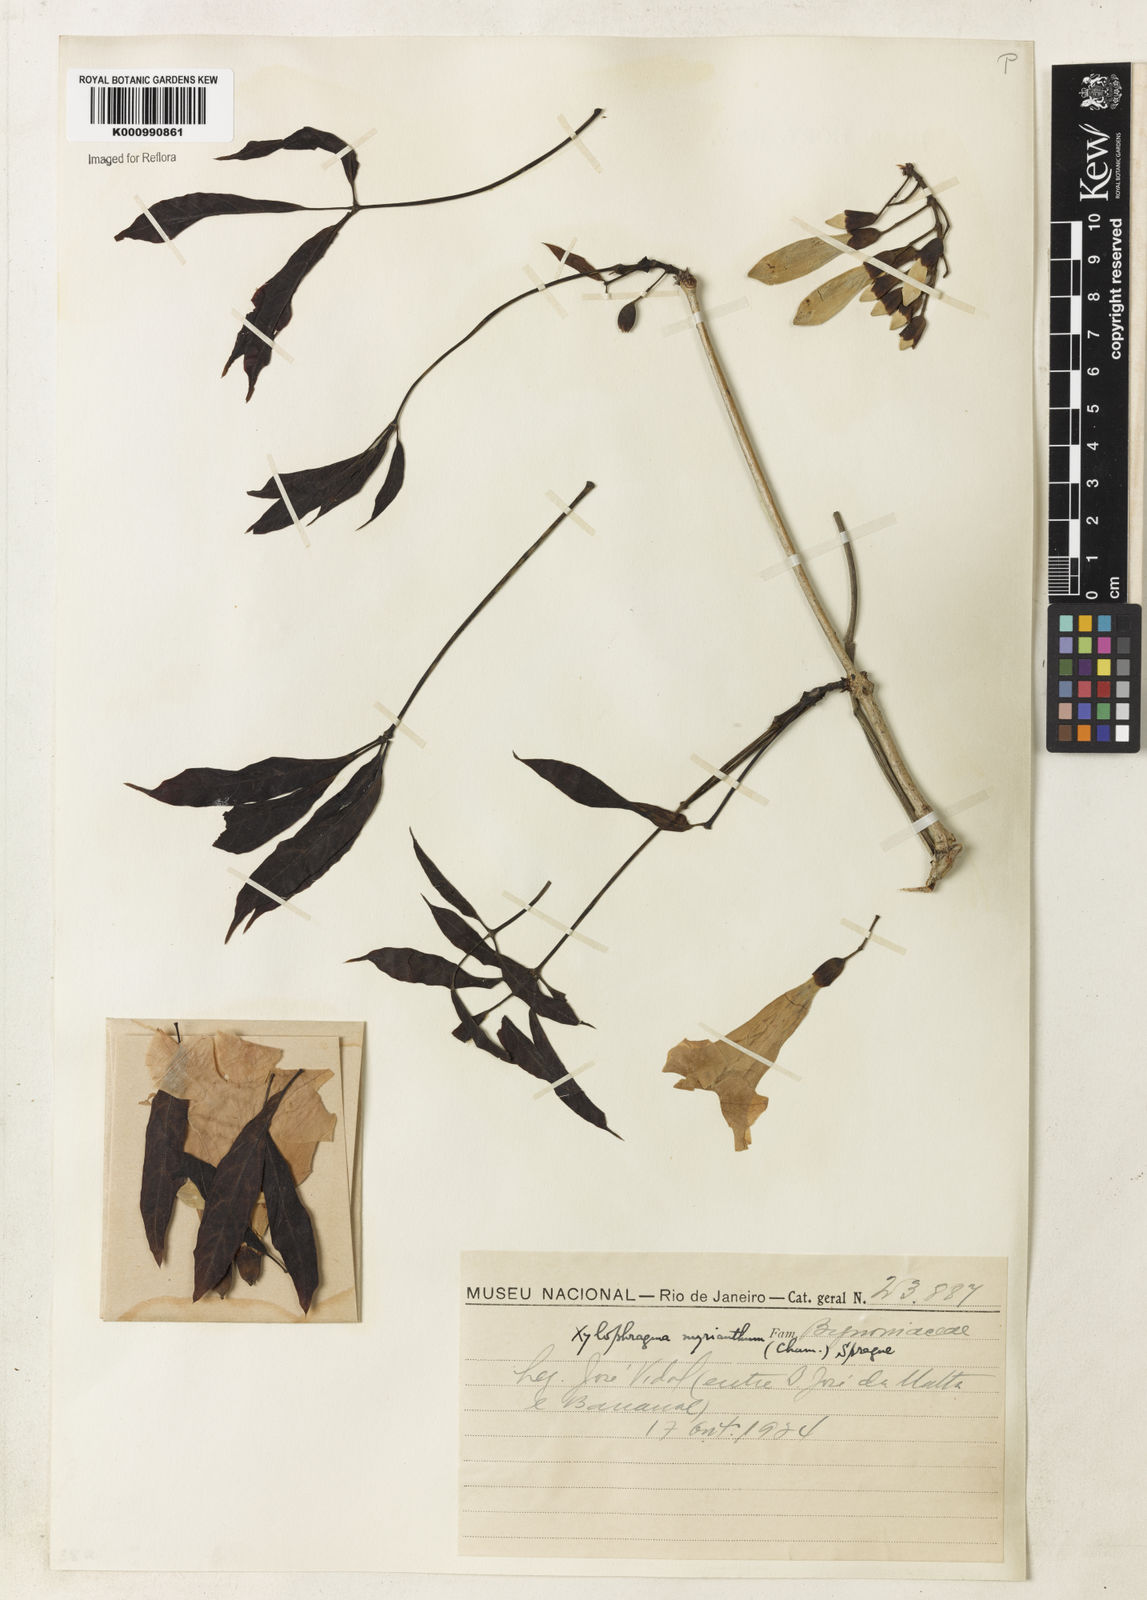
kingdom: Plantae
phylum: Tracheophyta
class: Magnoliopsida
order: Lamiales
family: Bignoniaceae
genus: Xylophragma
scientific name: Xylophragma myrianthum
